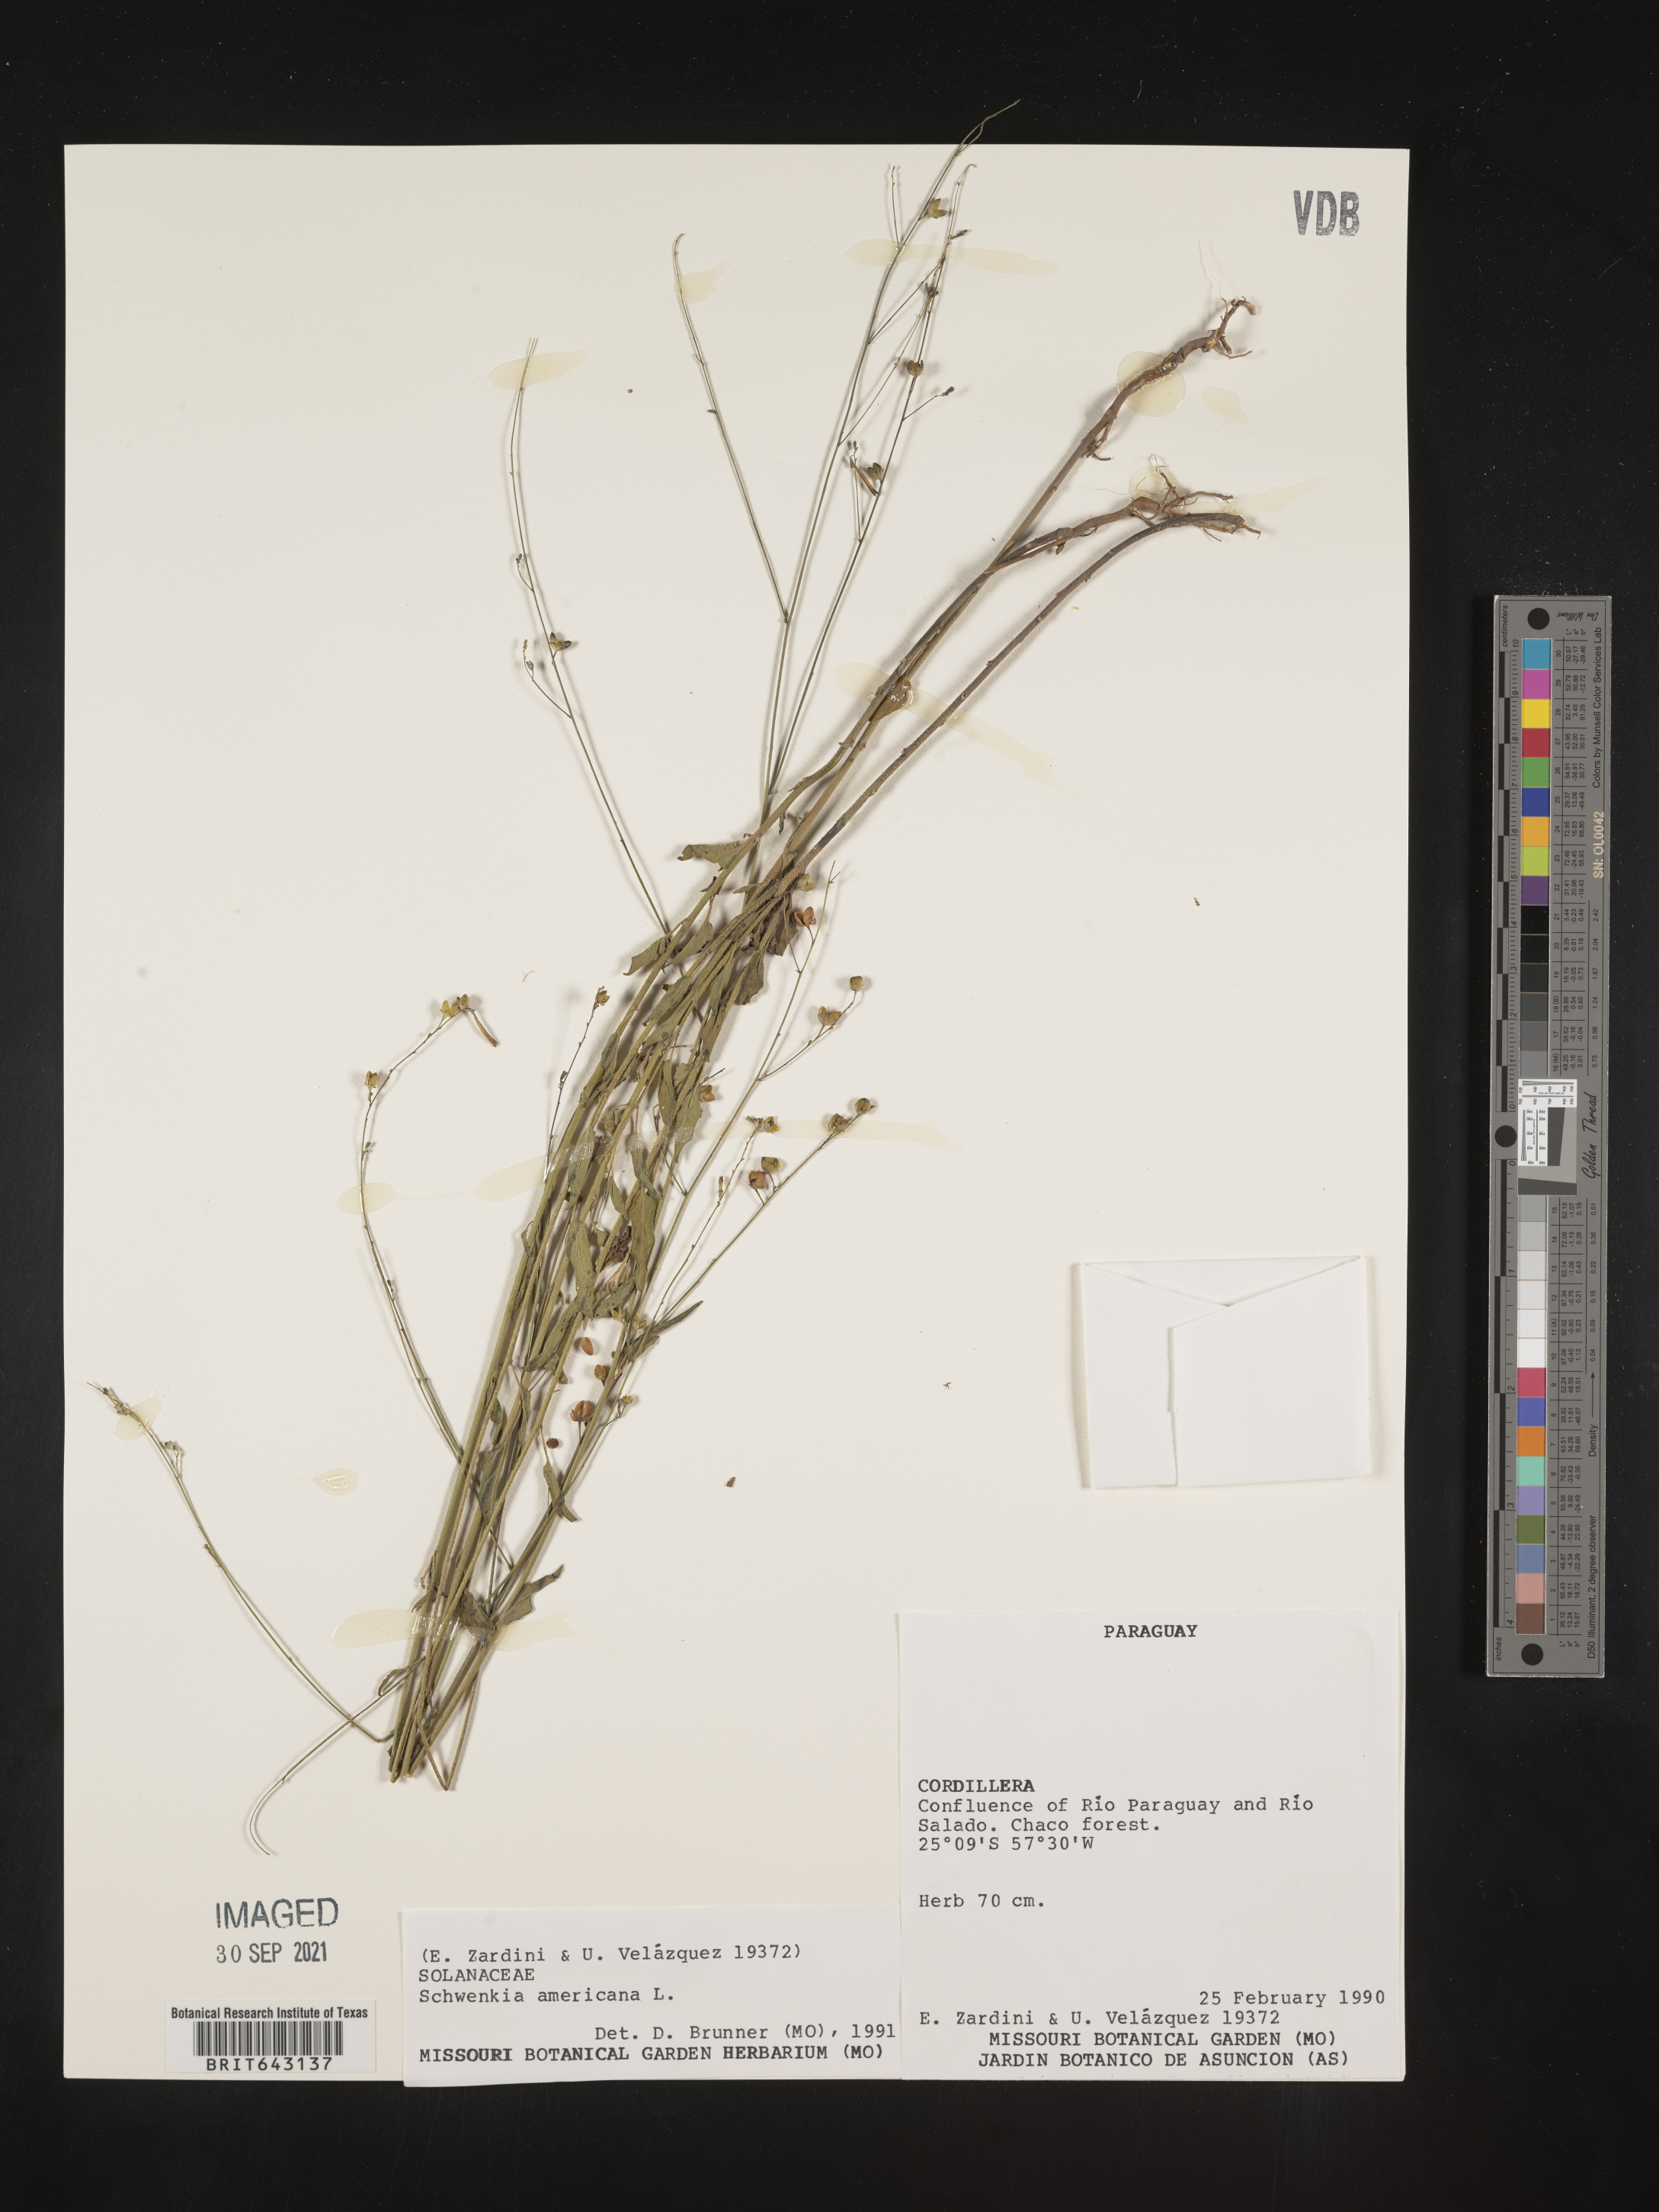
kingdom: Plantae
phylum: Tracheophyta
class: Magnoliopsida
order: Solanales
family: Solanaceae
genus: Schwenckia
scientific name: Schwenckia
